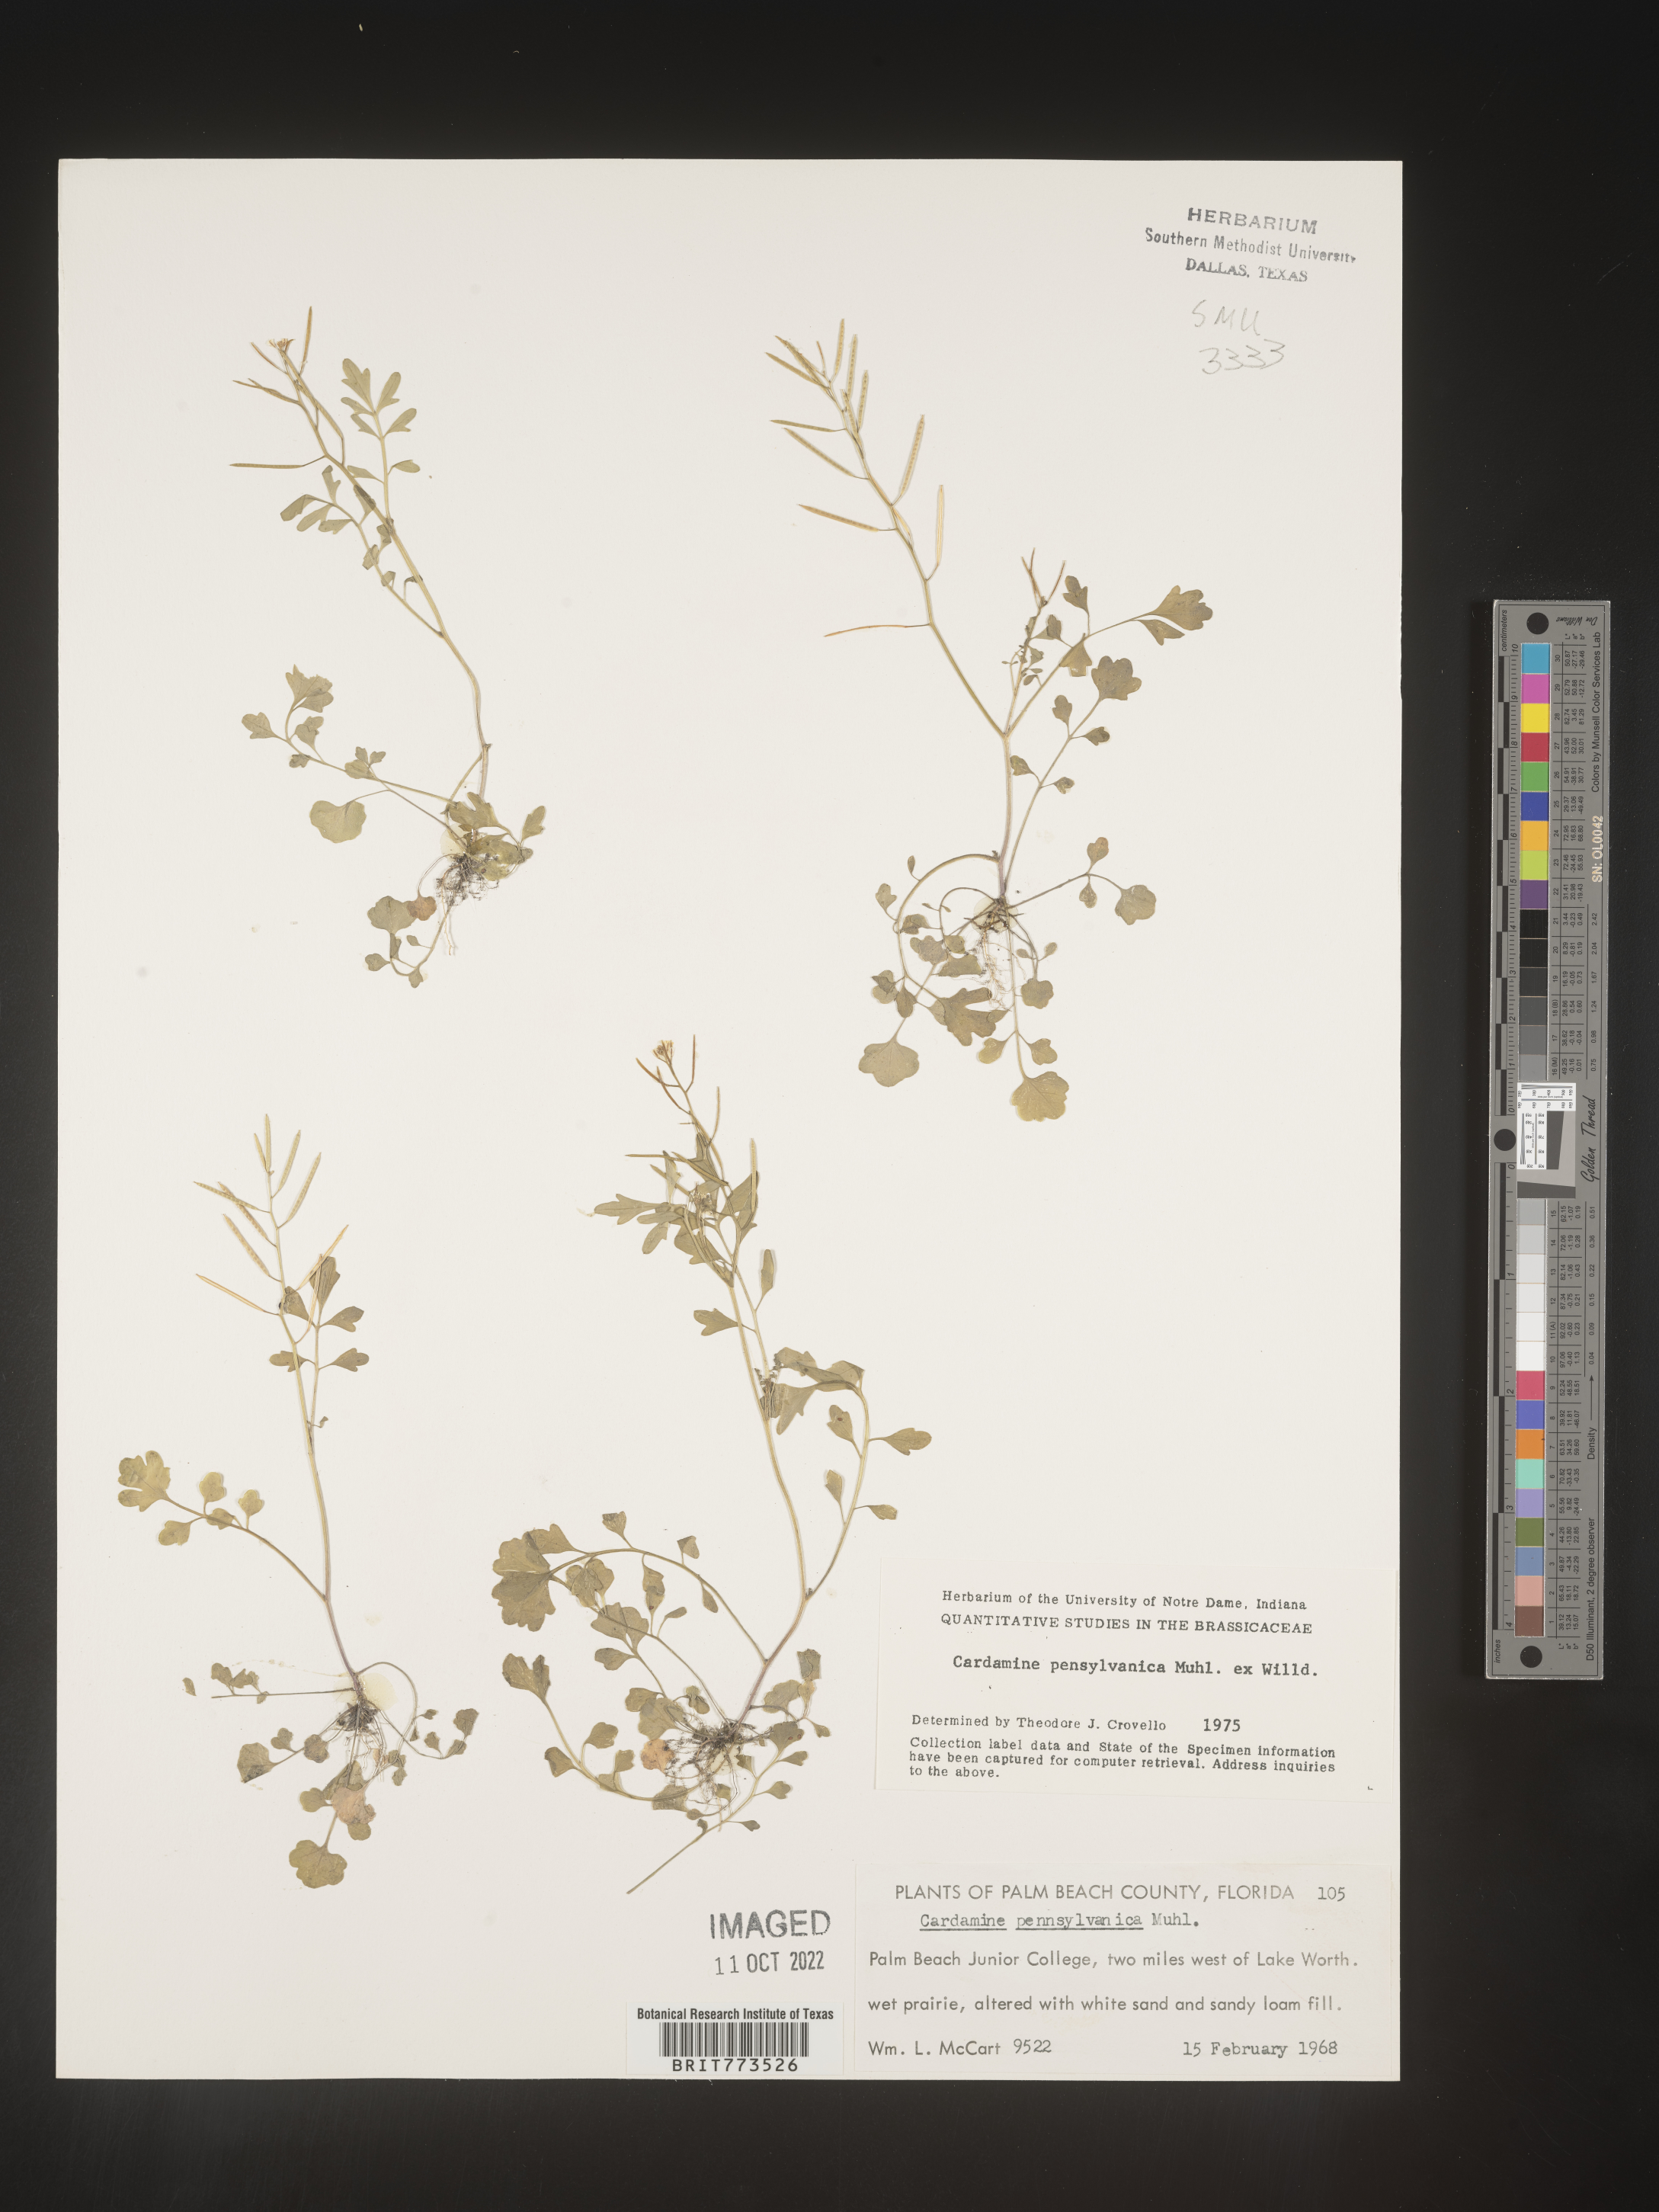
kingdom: Plantae
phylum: Tracheophyta
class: Magnoliopsida
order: Brassicales
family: Brassicaceae
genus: Cardamine
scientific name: Cardamine pensylvanica
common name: Pennsylvania bittercress
